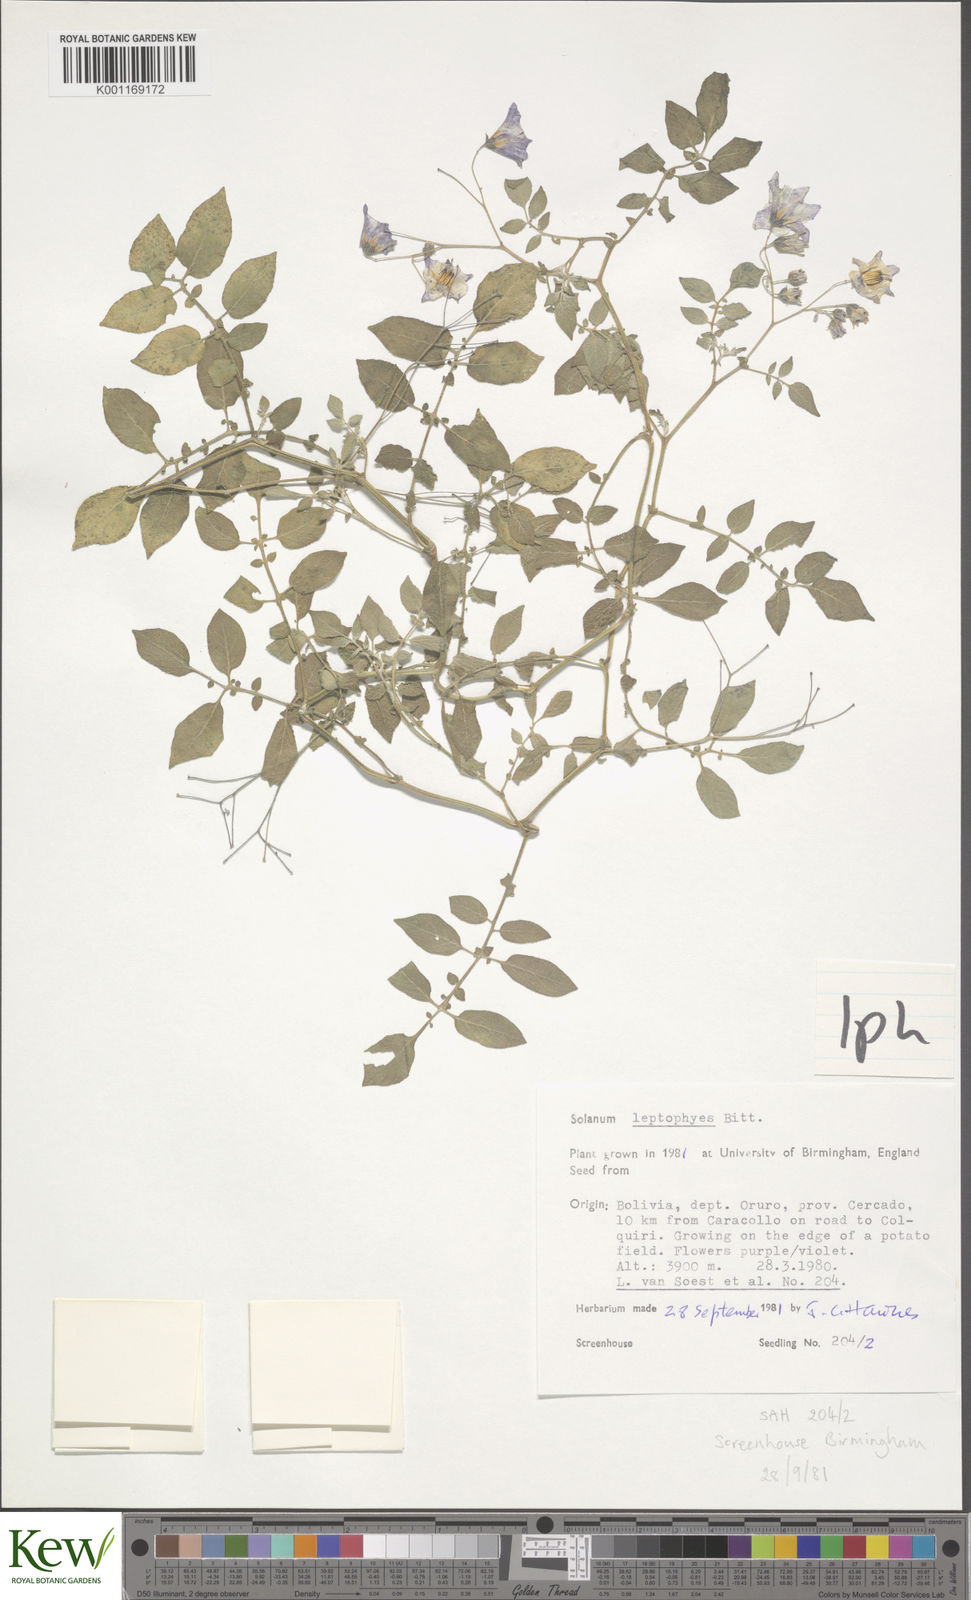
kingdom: Plantae
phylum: Tracheophyta
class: Magnoliopsida
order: Solanales
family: Solanaceae
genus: Solanum
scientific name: Solanum brevicaule
